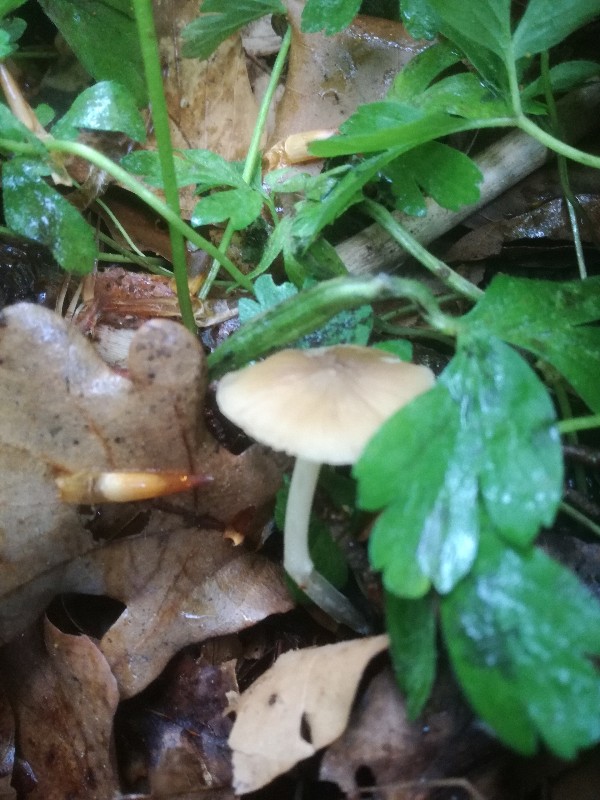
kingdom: Fungi
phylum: Basidiomycota
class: Agaricomycetes
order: Agaricales
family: Porotheleaceae
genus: Hydropodia
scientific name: Hydropodia subalpina
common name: vår-fnugfod
